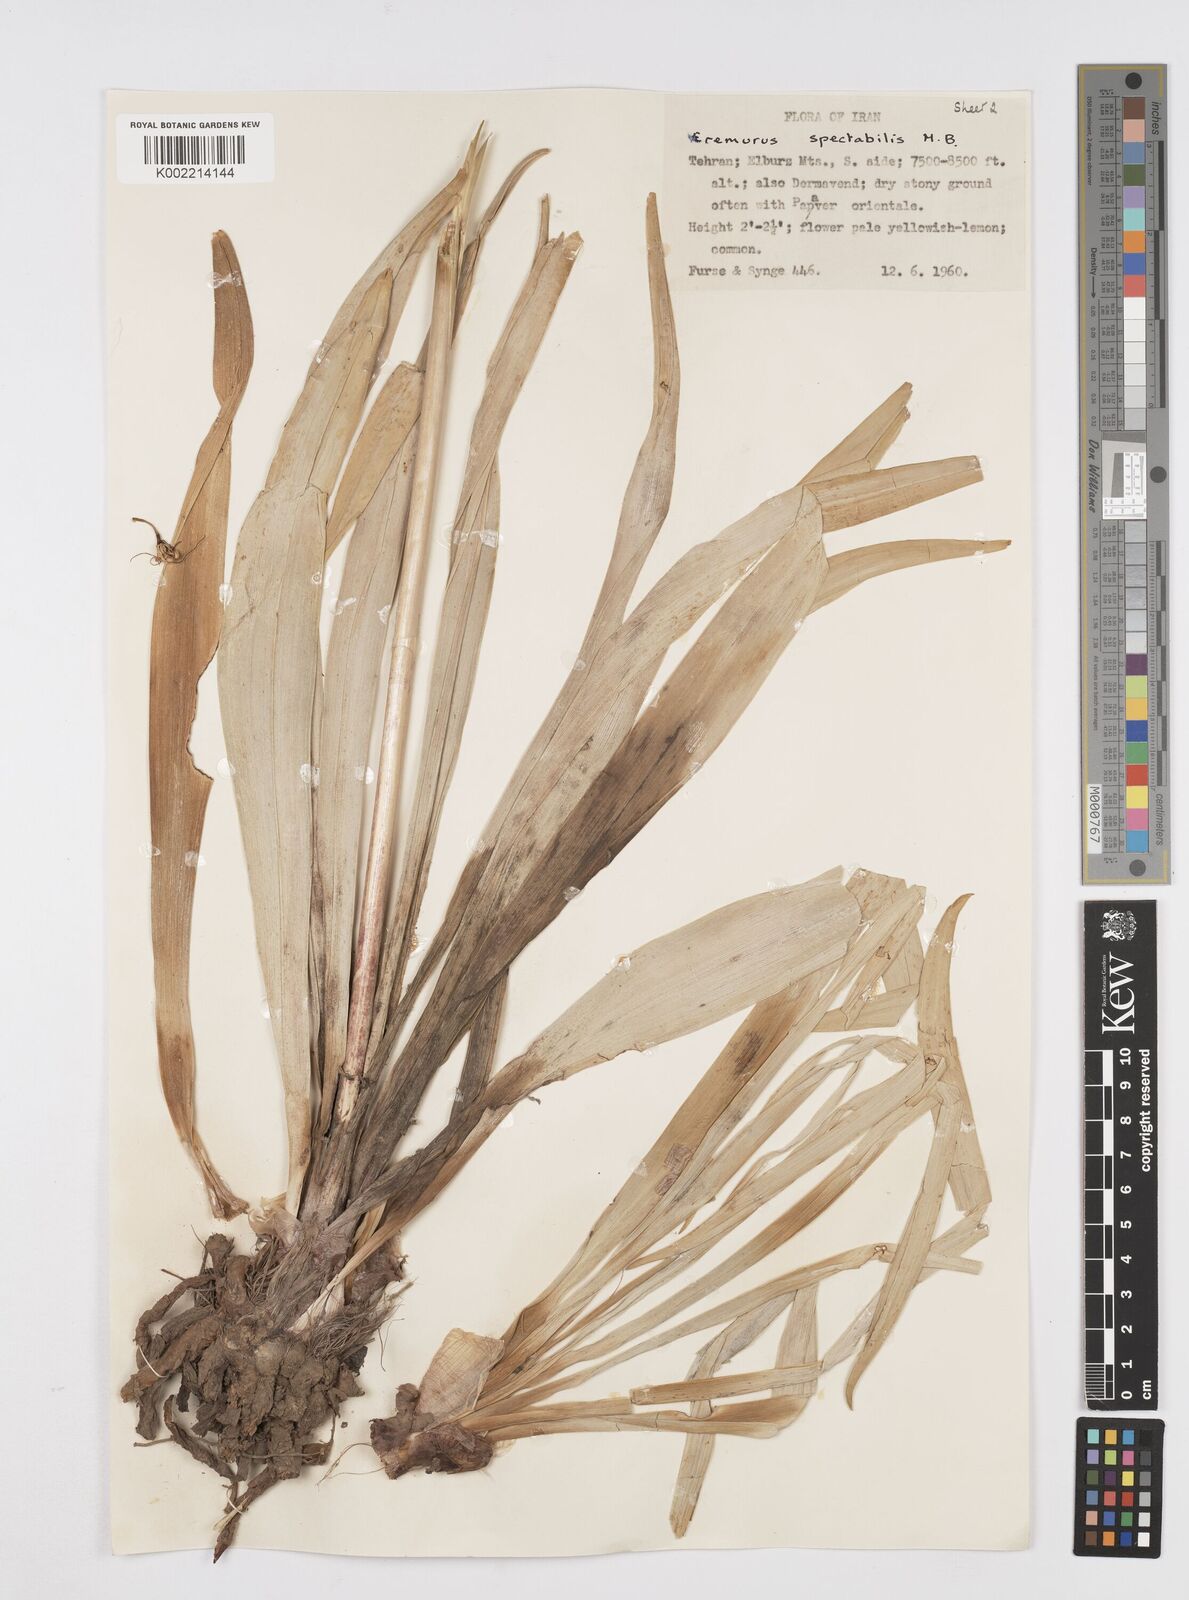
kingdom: Plantae
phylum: Tracheophyta
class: Liliopsida
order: Asparagales
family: Asphodelaceae
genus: Eremurus
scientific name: Eremurus spectabilis
